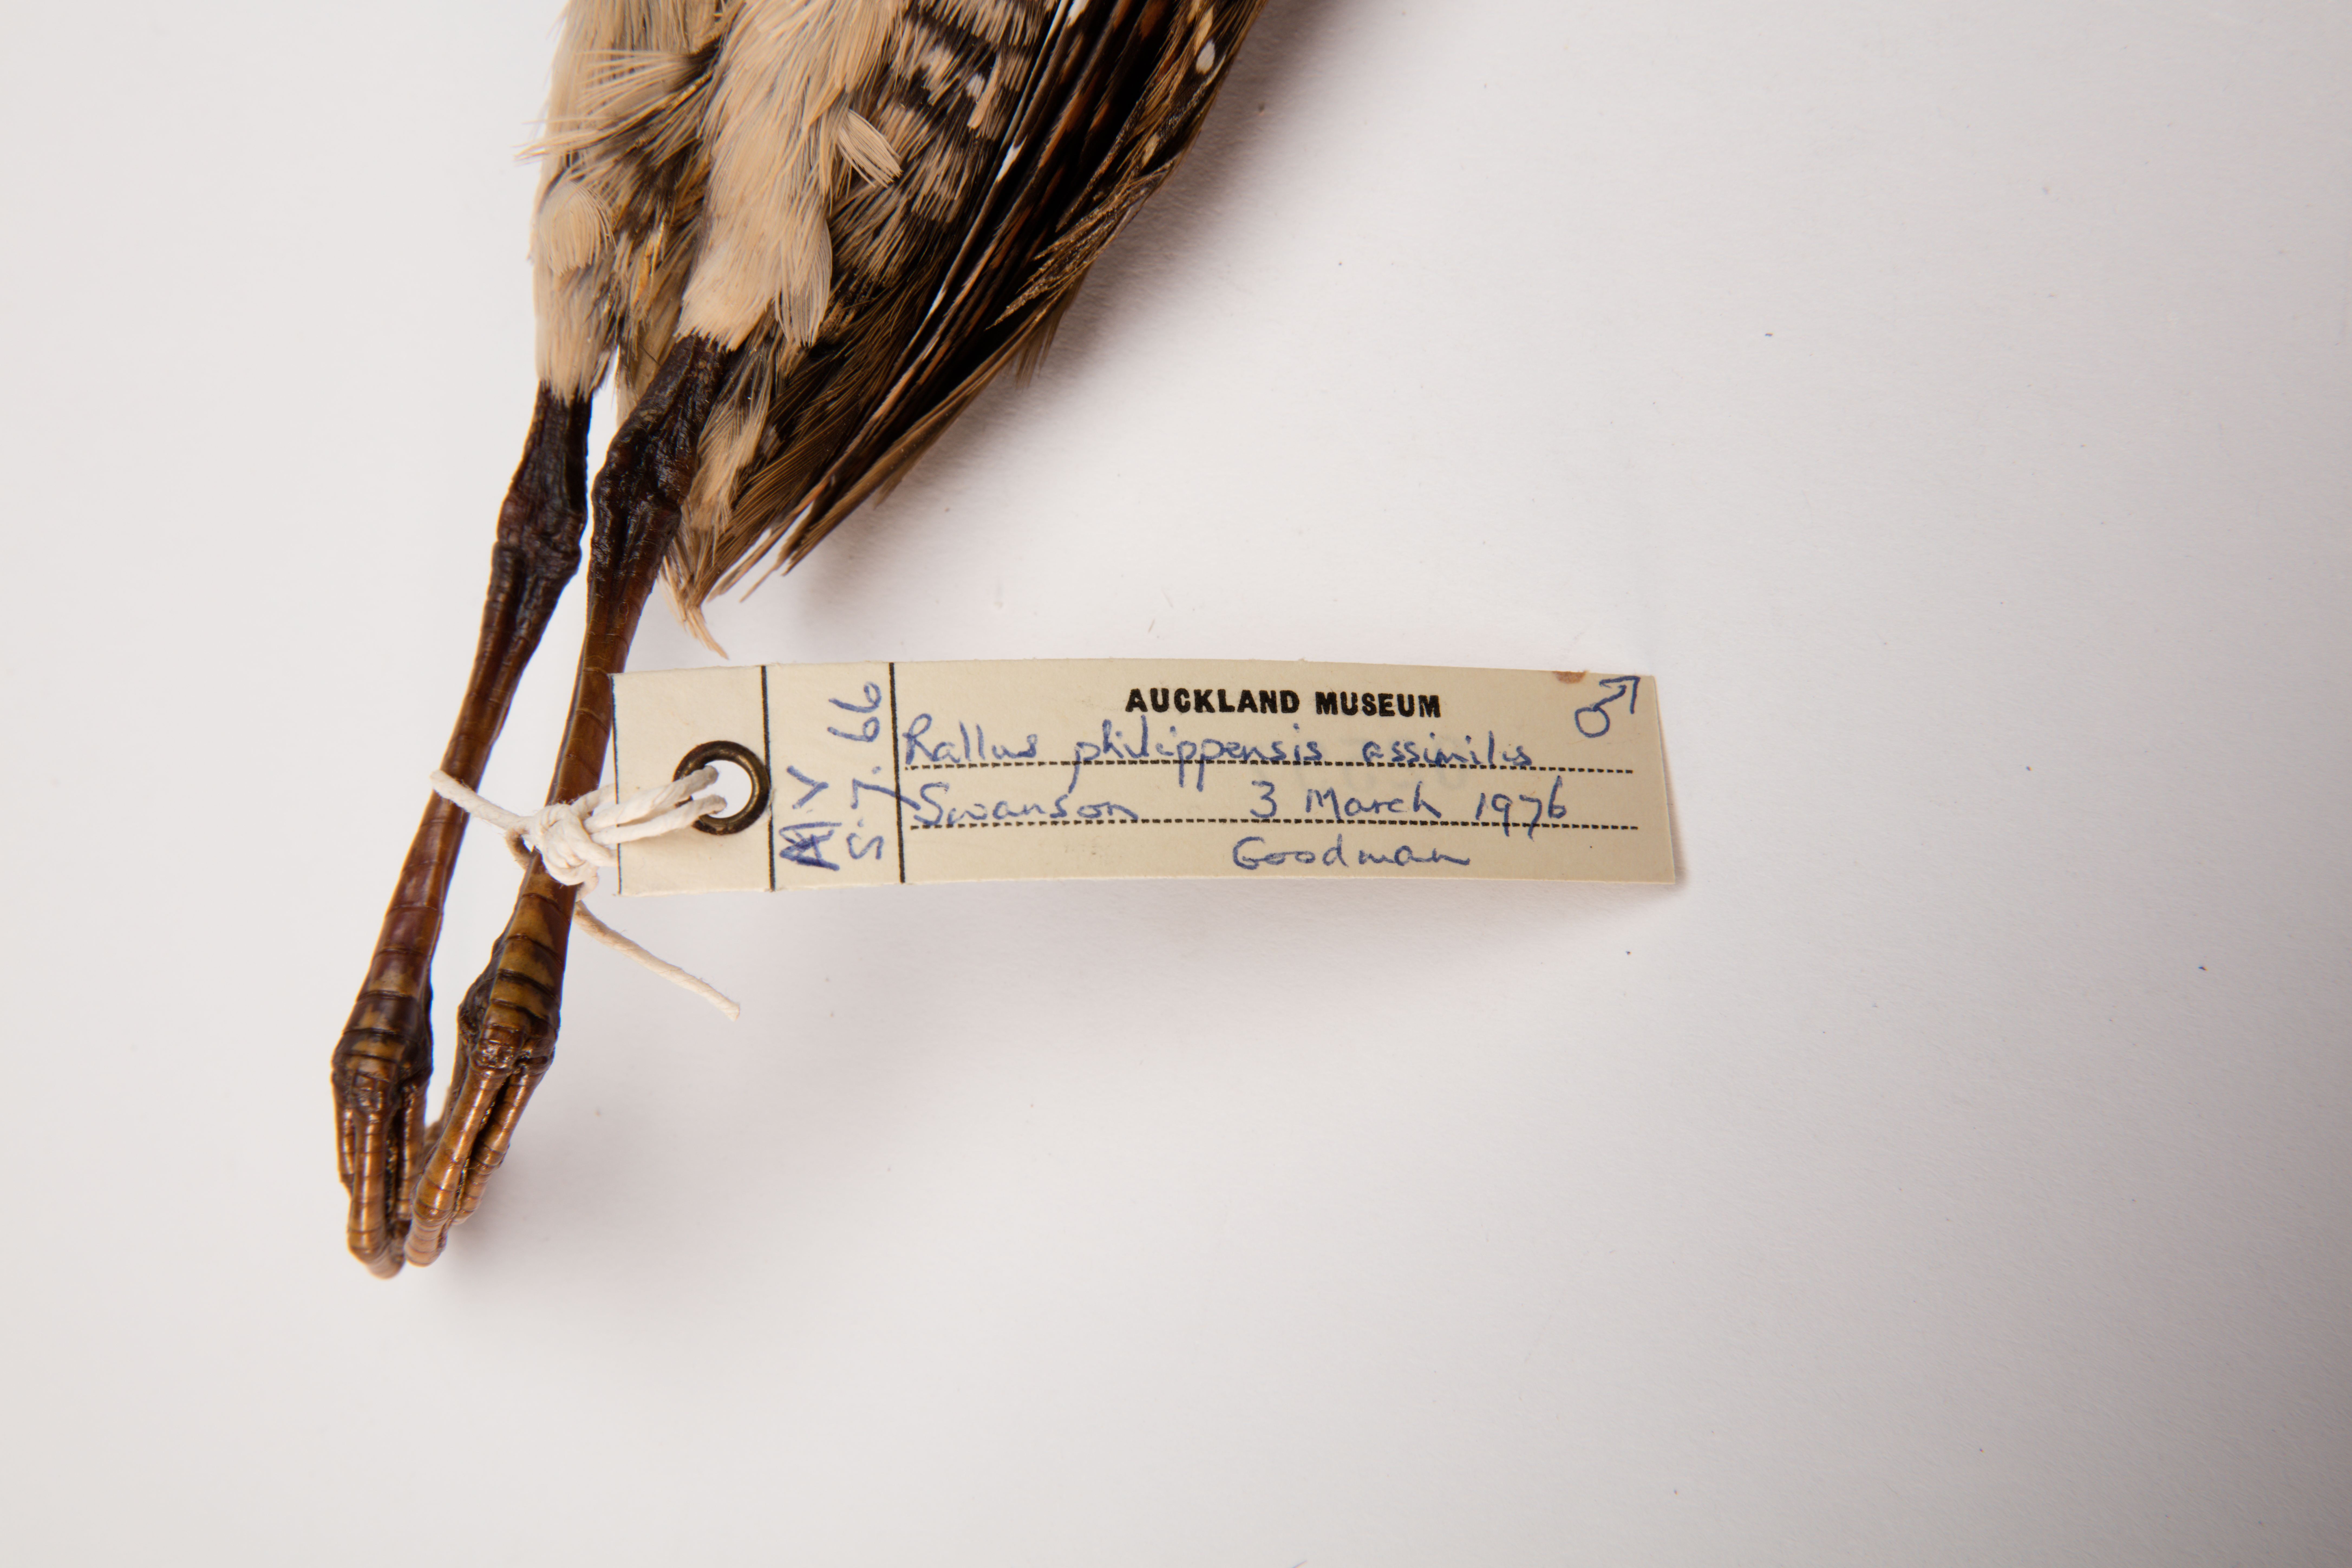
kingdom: Animalia
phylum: Chordata
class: Aves
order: Gruiformes
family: Rallidae
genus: Gallirallus
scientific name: Gallirallus philippensis
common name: Buff-banded rail
